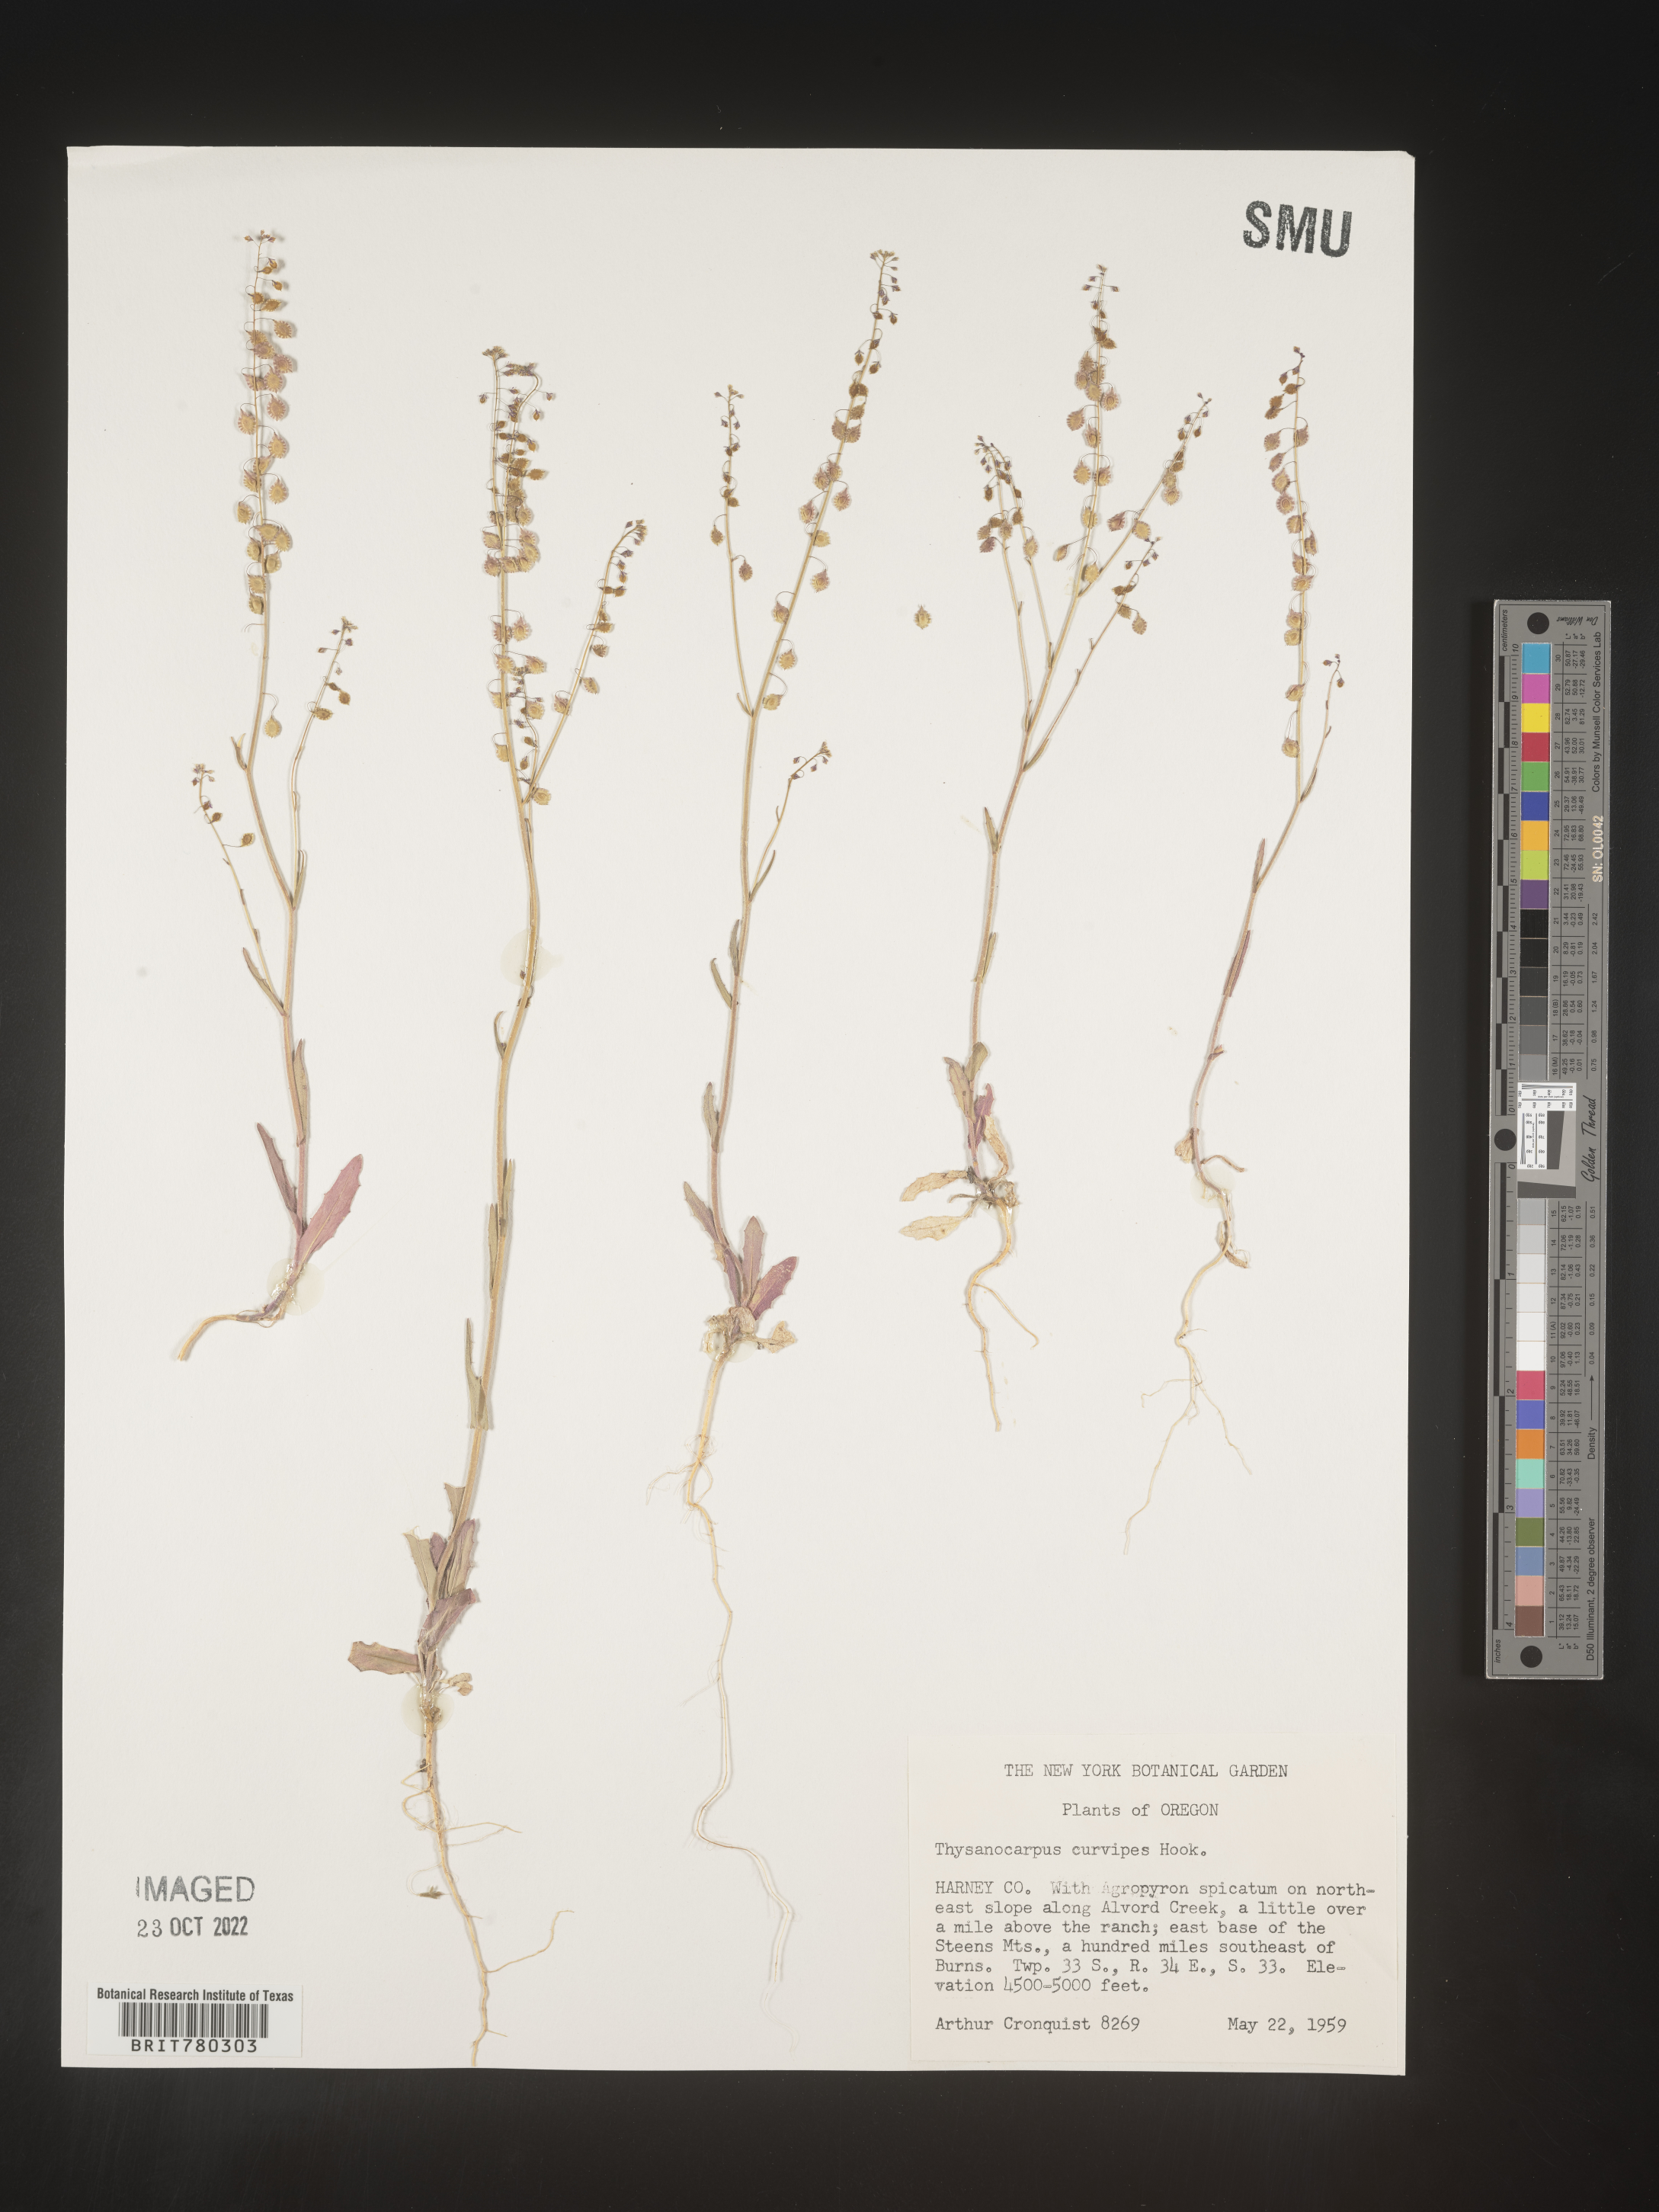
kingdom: Plantae
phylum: Tracheophyta
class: Magnoliopsida
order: Brassicales
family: Brassicaceae
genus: Thysanocarpus
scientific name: Thysanocarpus
